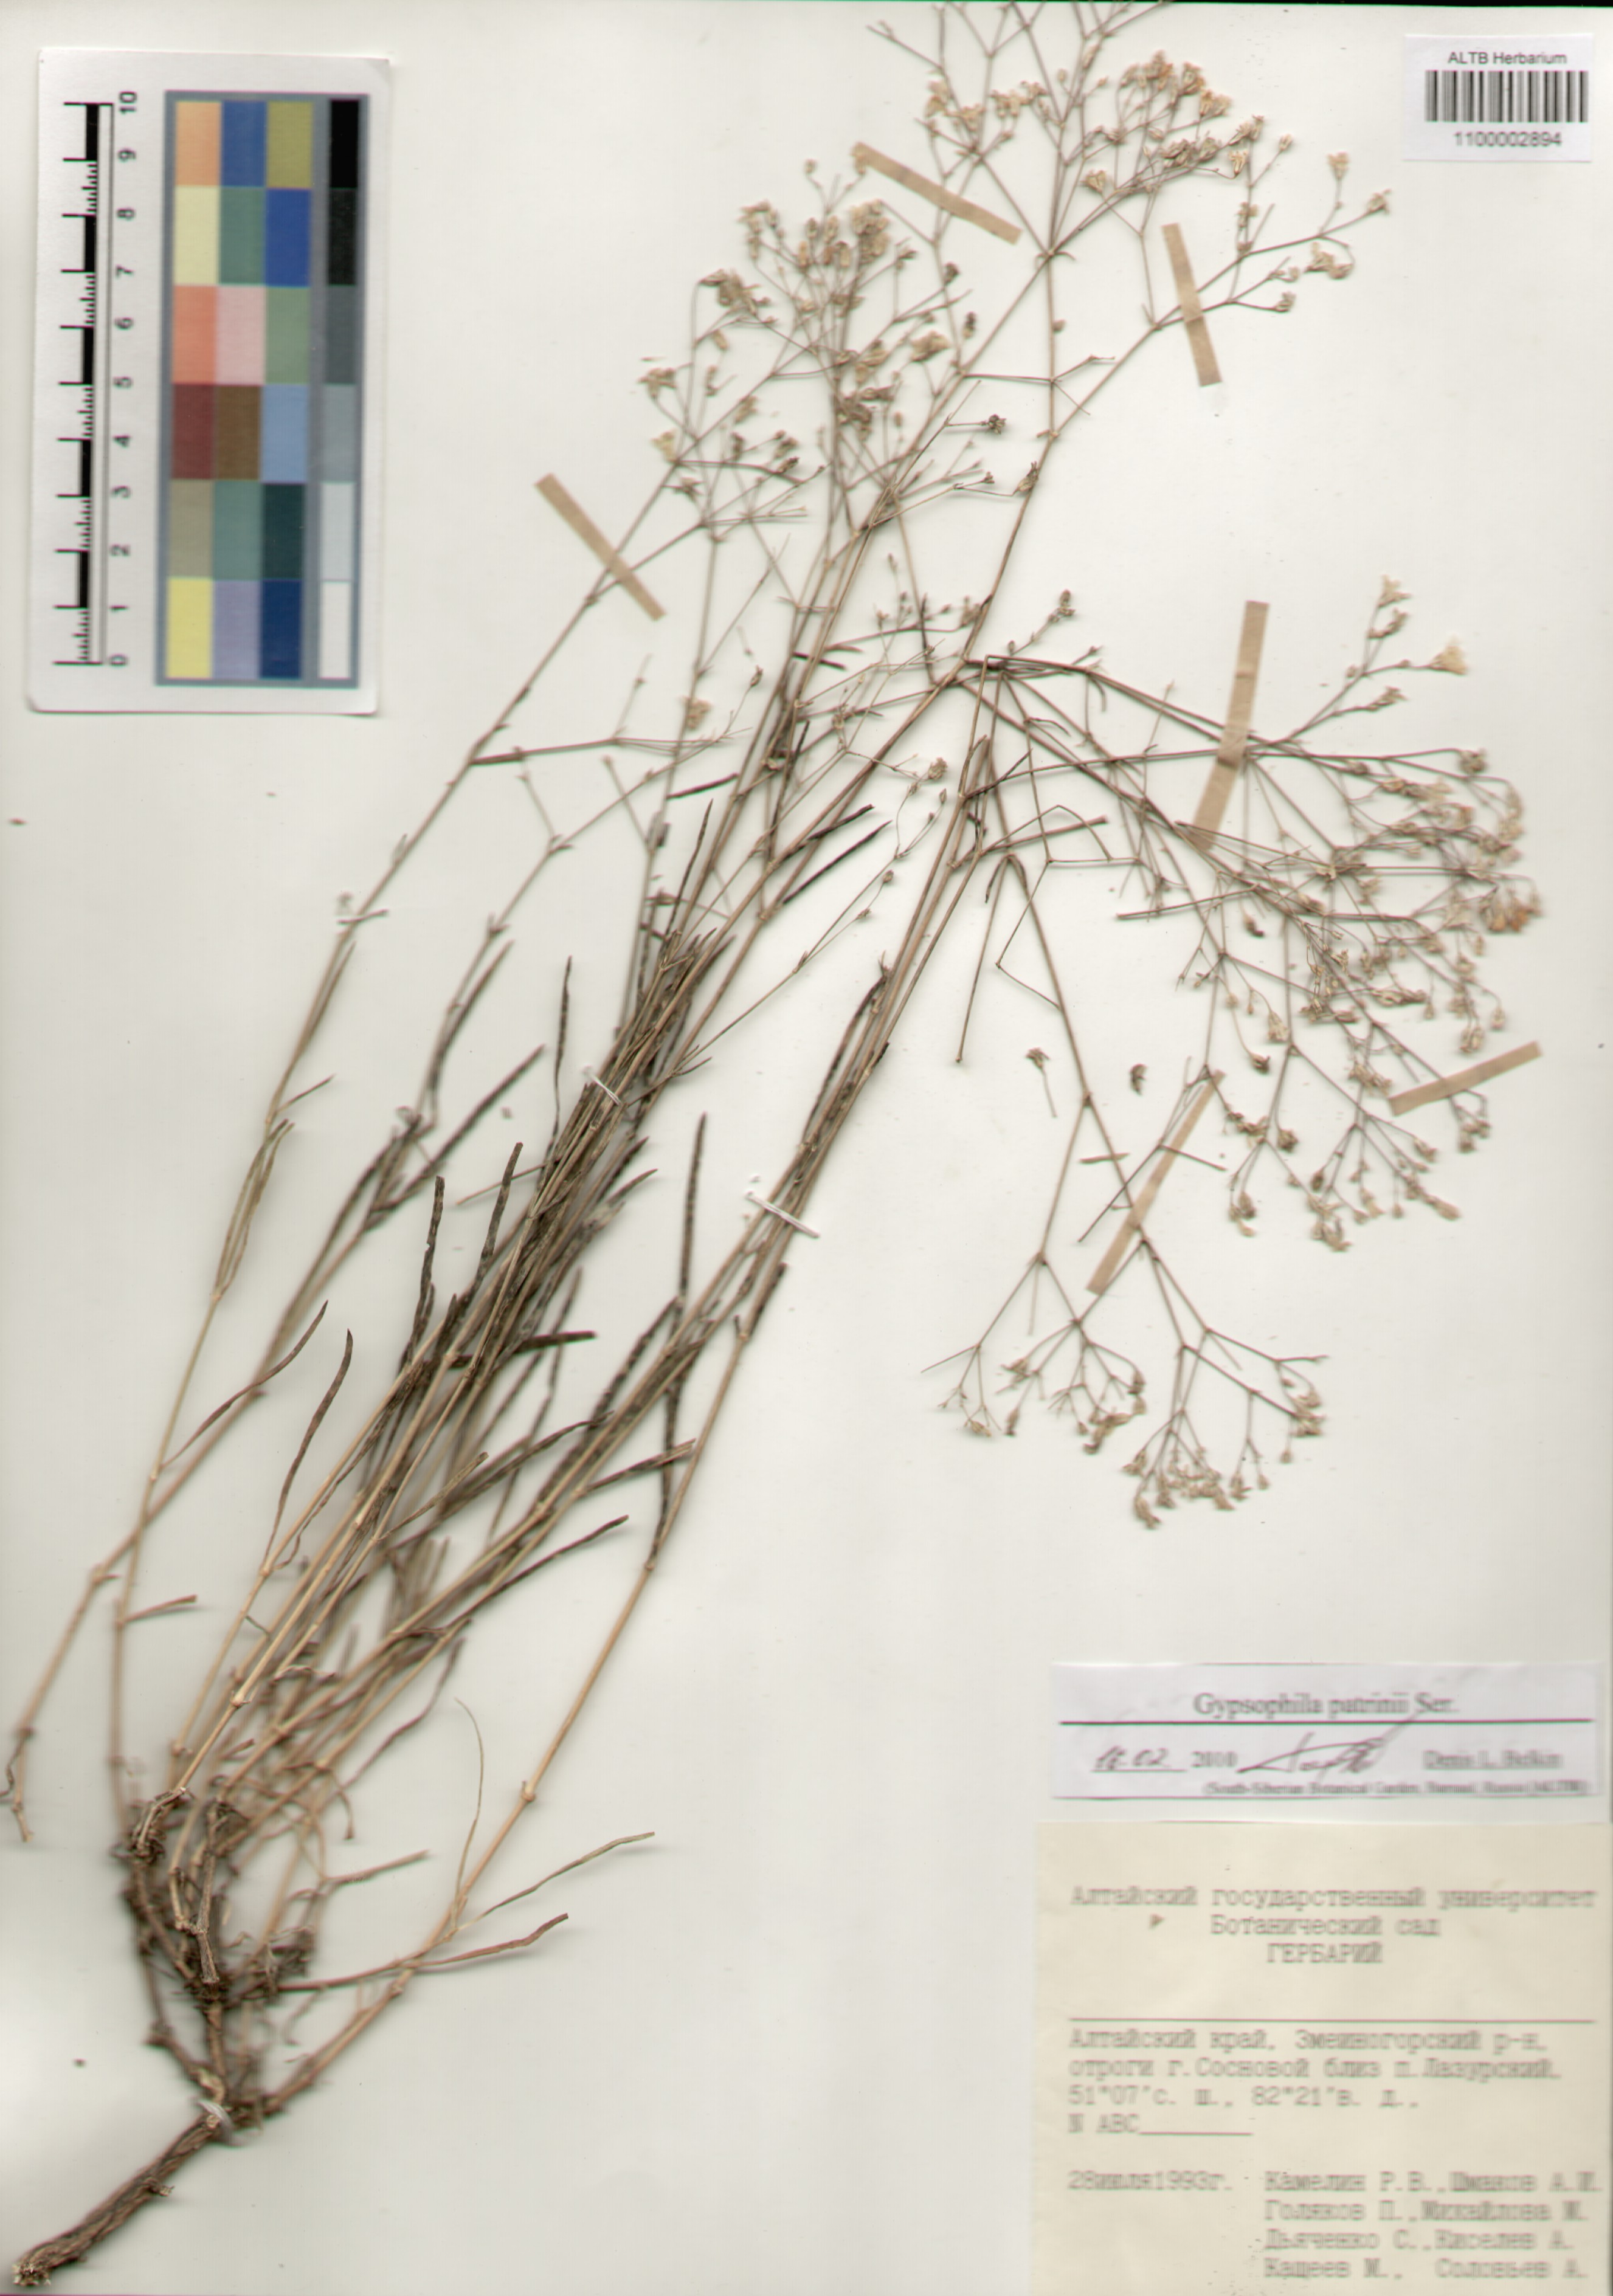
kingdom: Plantae
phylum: Tracheophyta
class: Magnoliopsida
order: Caryophyllales
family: Caryophyllaceae
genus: Gypsophila
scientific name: Gypsophila patrinii
